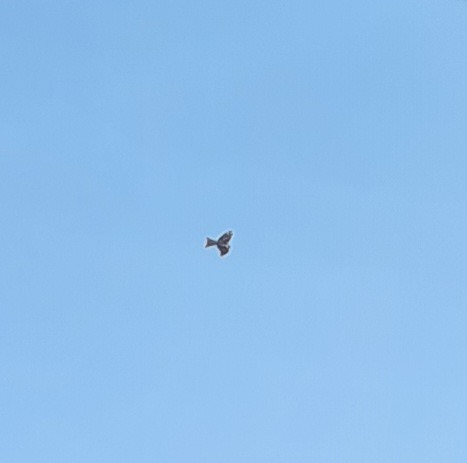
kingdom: Animalia
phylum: Chordata
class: Aves
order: Accipitriformes
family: Accipitridae
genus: Milvus
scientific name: Milvus milvus
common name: Rød glente
